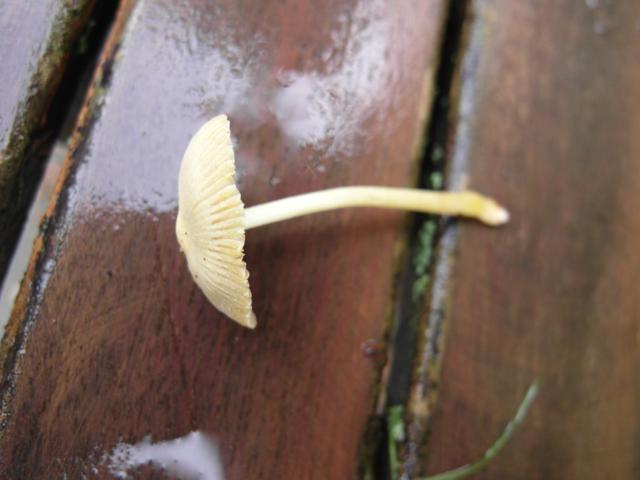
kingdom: Fungi
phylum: Basidiomycota
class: Agaricomycetes
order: Agaricales
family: Bolbitiaceae
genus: Bolbitius
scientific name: Bolbitius titubans
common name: almindelig gulhat
